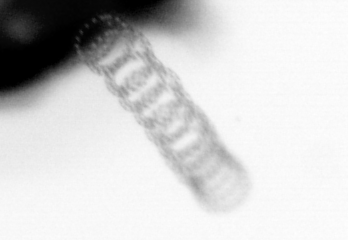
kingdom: Chromista
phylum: Ochrophyta
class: Bacillariophyceae
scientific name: Bacillariophyceae
